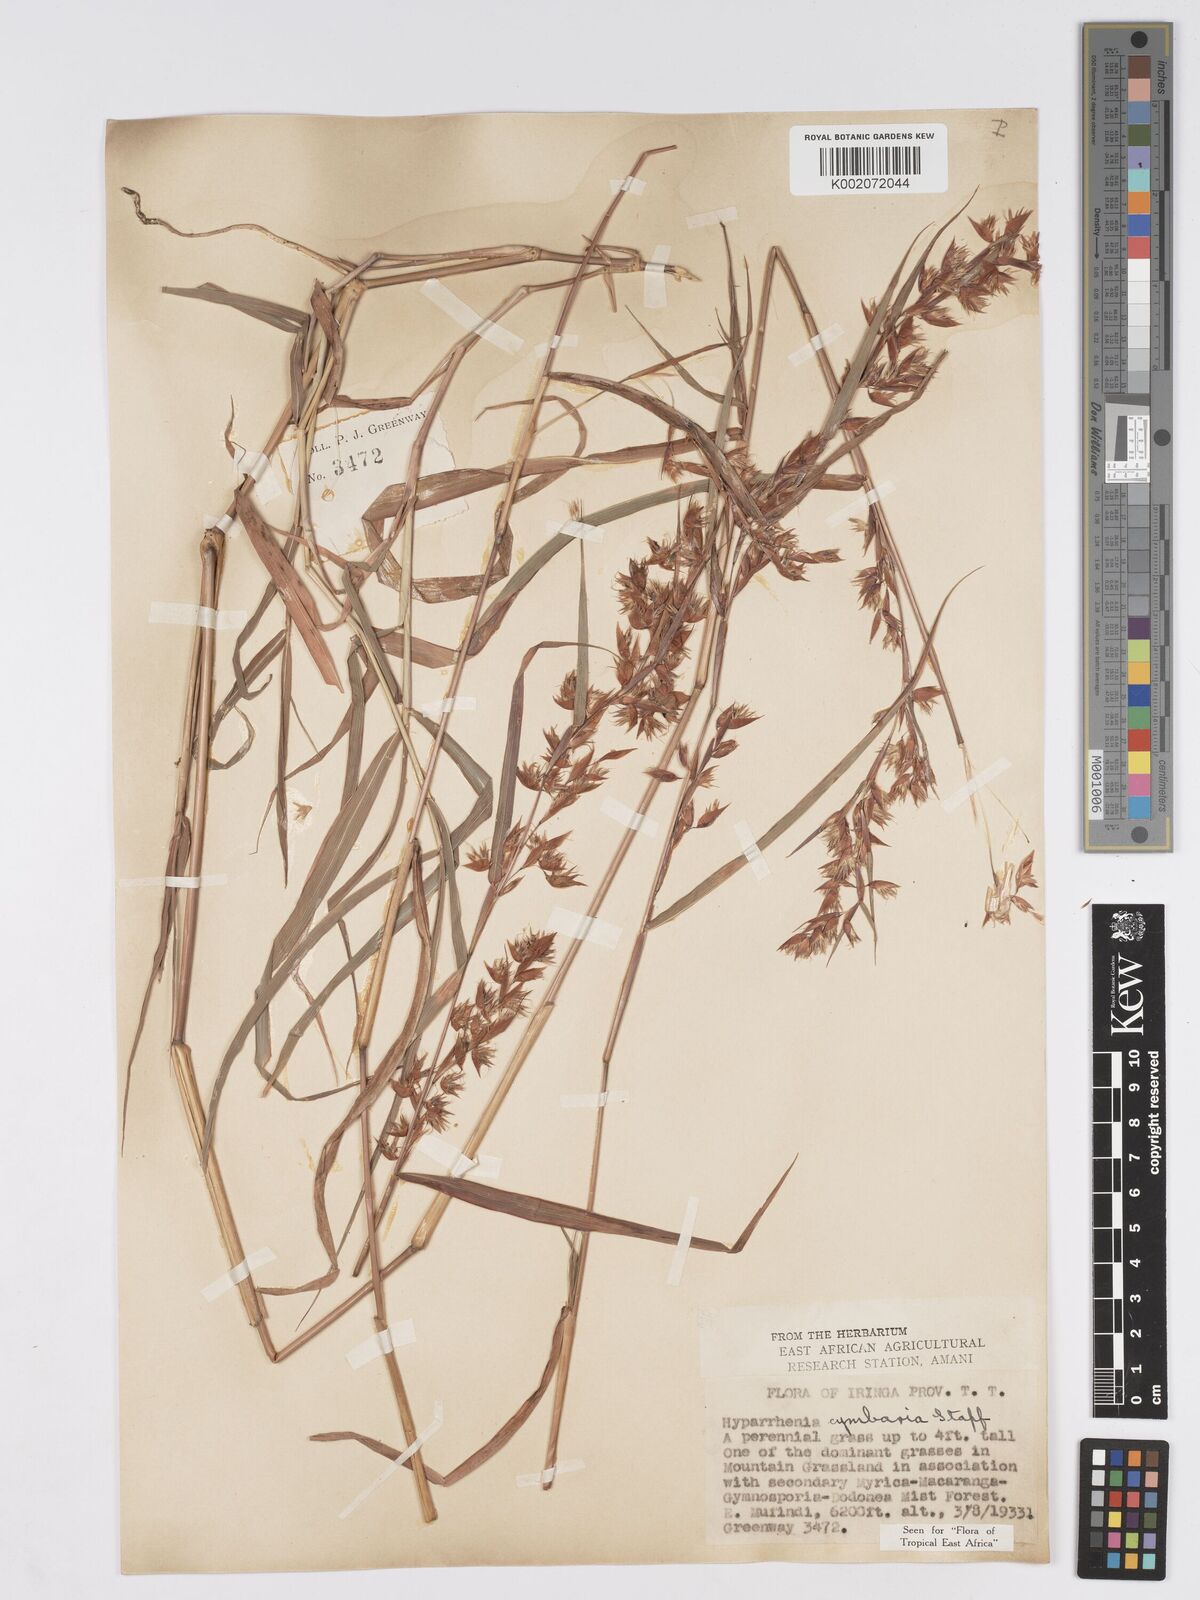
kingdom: Plantae
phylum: Tracheophyta
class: Liliopsida
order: Poales
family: Poaceae
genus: Hyparrhenia
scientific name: Hyparrhenia cymbaria
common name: Boat thatching grass
